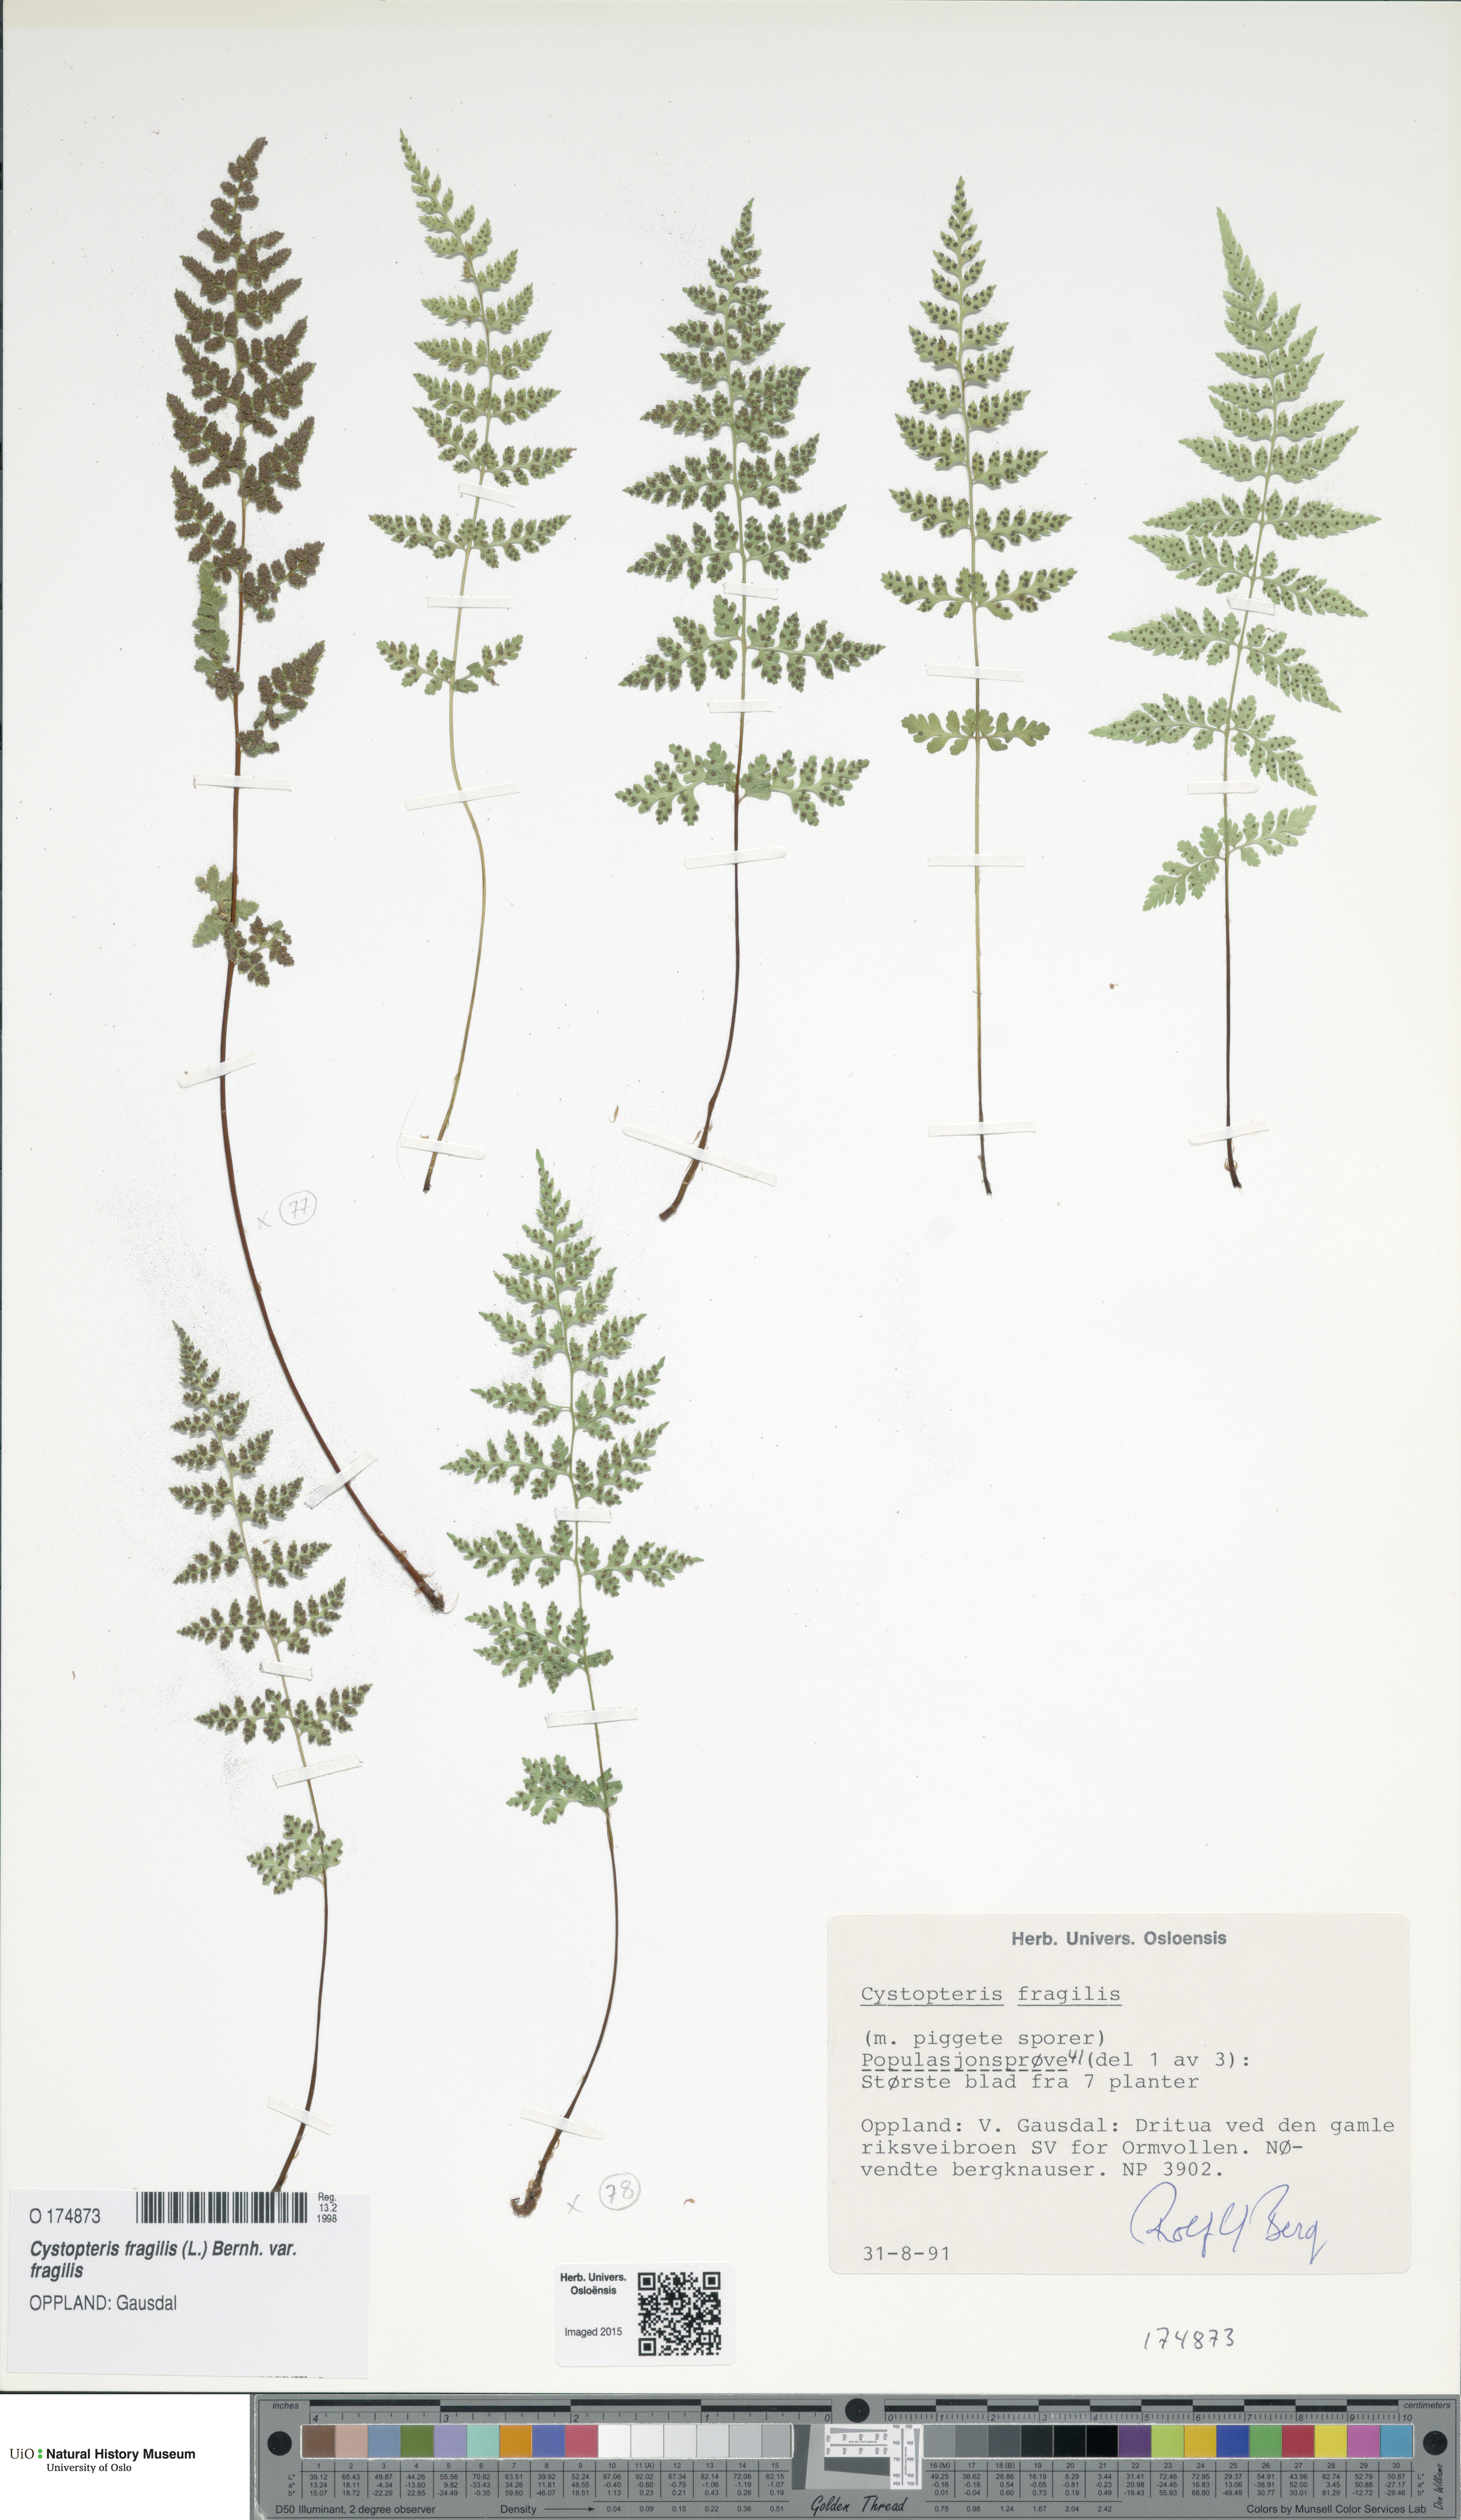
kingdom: Plantae
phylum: Tracheophyta
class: Polypodiopsida
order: Polypodiales
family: Cystopteridaceae
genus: Cystopteris
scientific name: Cystopteris fragilis
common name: Brittle bladder fern
